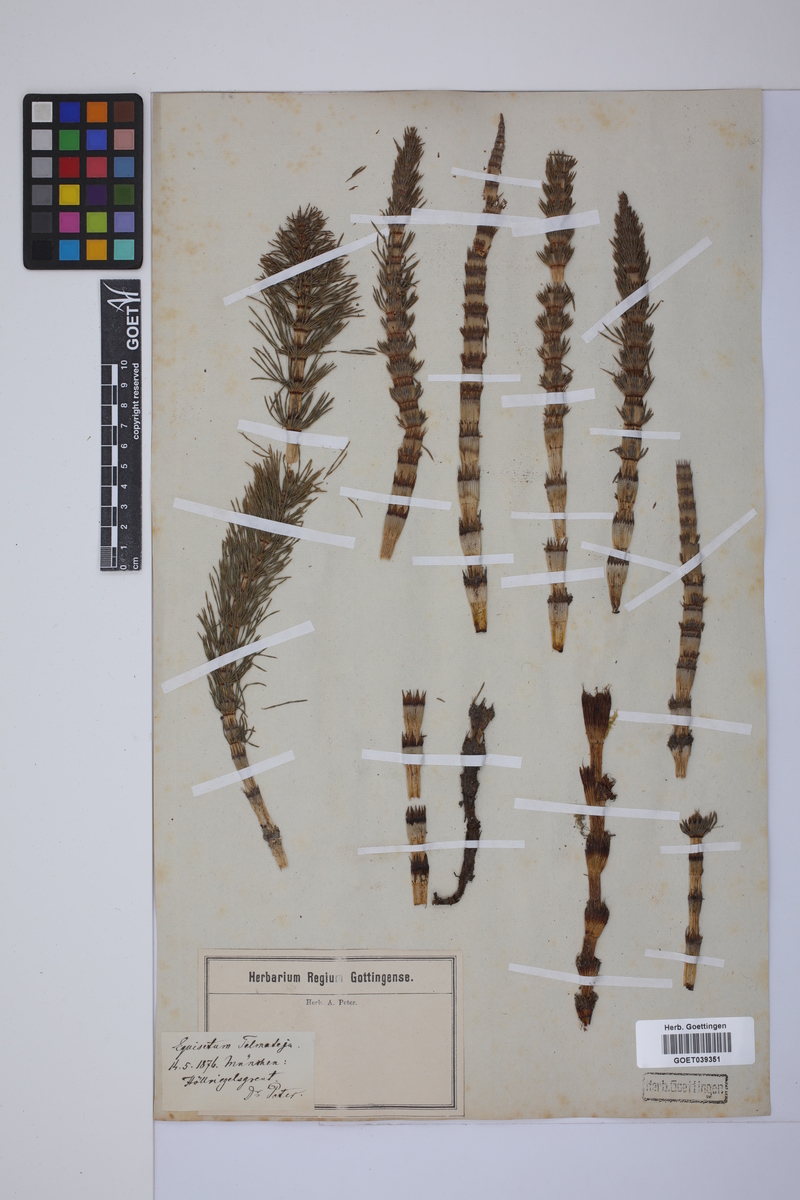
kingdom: Plantae
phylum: Tracheophyta
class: Polypodiopsida
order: Equisetales
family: Equisetaceae
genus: Equisetum
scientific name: Equisetum telmateia
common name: Great horsetail
